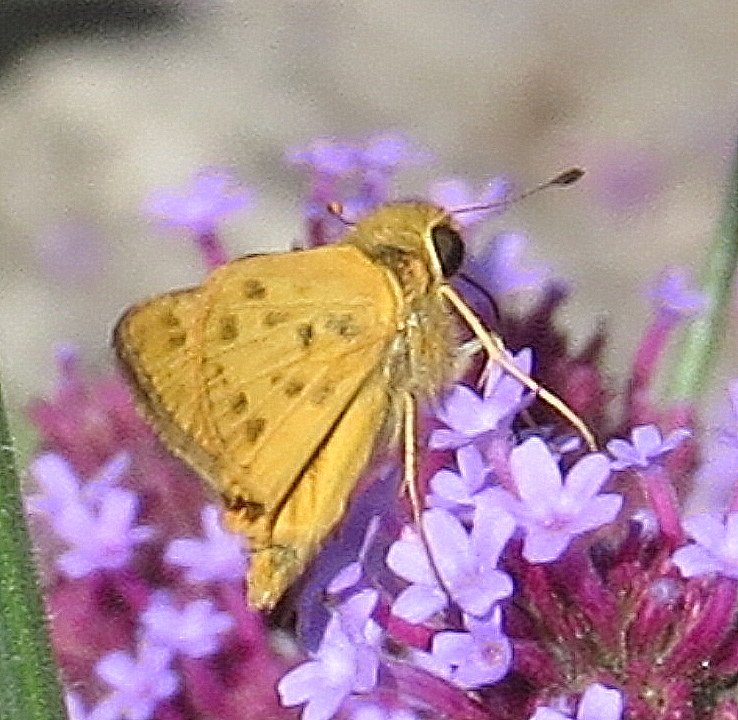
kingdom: Animalia
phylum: Arthropoda
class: Insecta
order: Lepidoptera
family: Hesperiidae
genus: Hylephila
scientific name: Hylephila phyleus
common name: Fiery Skipper
